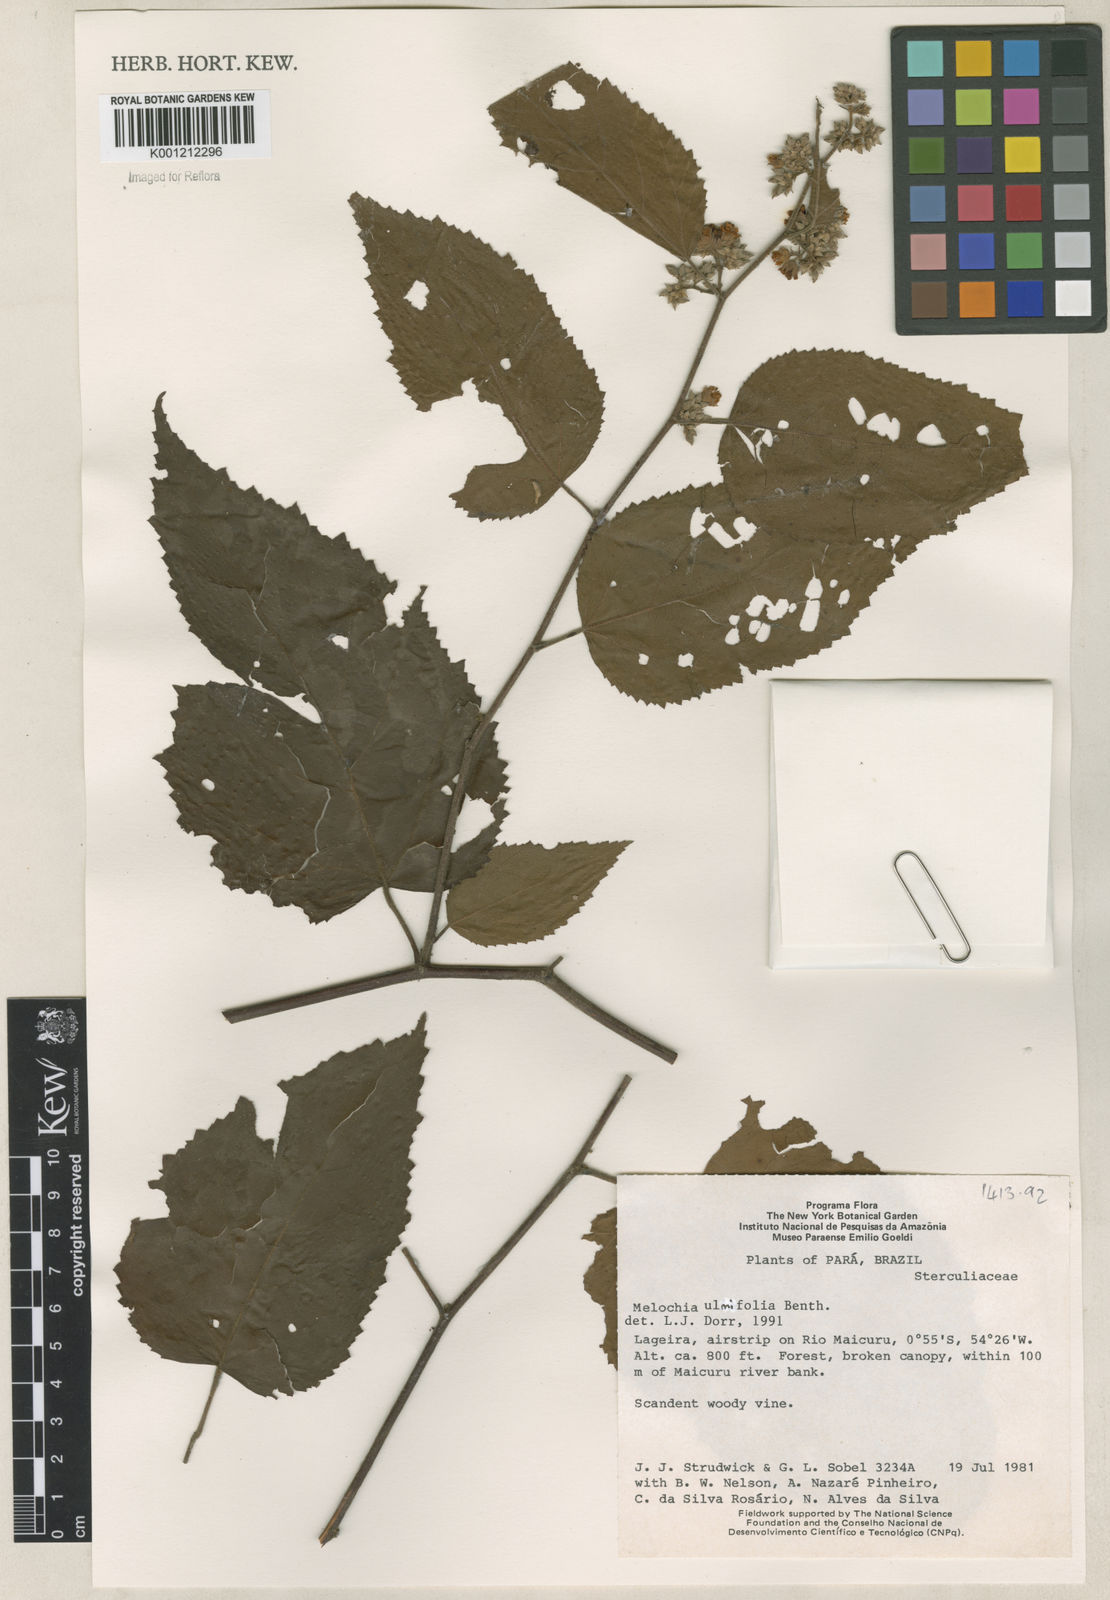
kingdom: Plantae
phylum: Tracheophyta
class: Magnoliopsida
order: Malvales
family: Malvaceae
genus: Melochia
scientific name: Melochia ulmifolia
